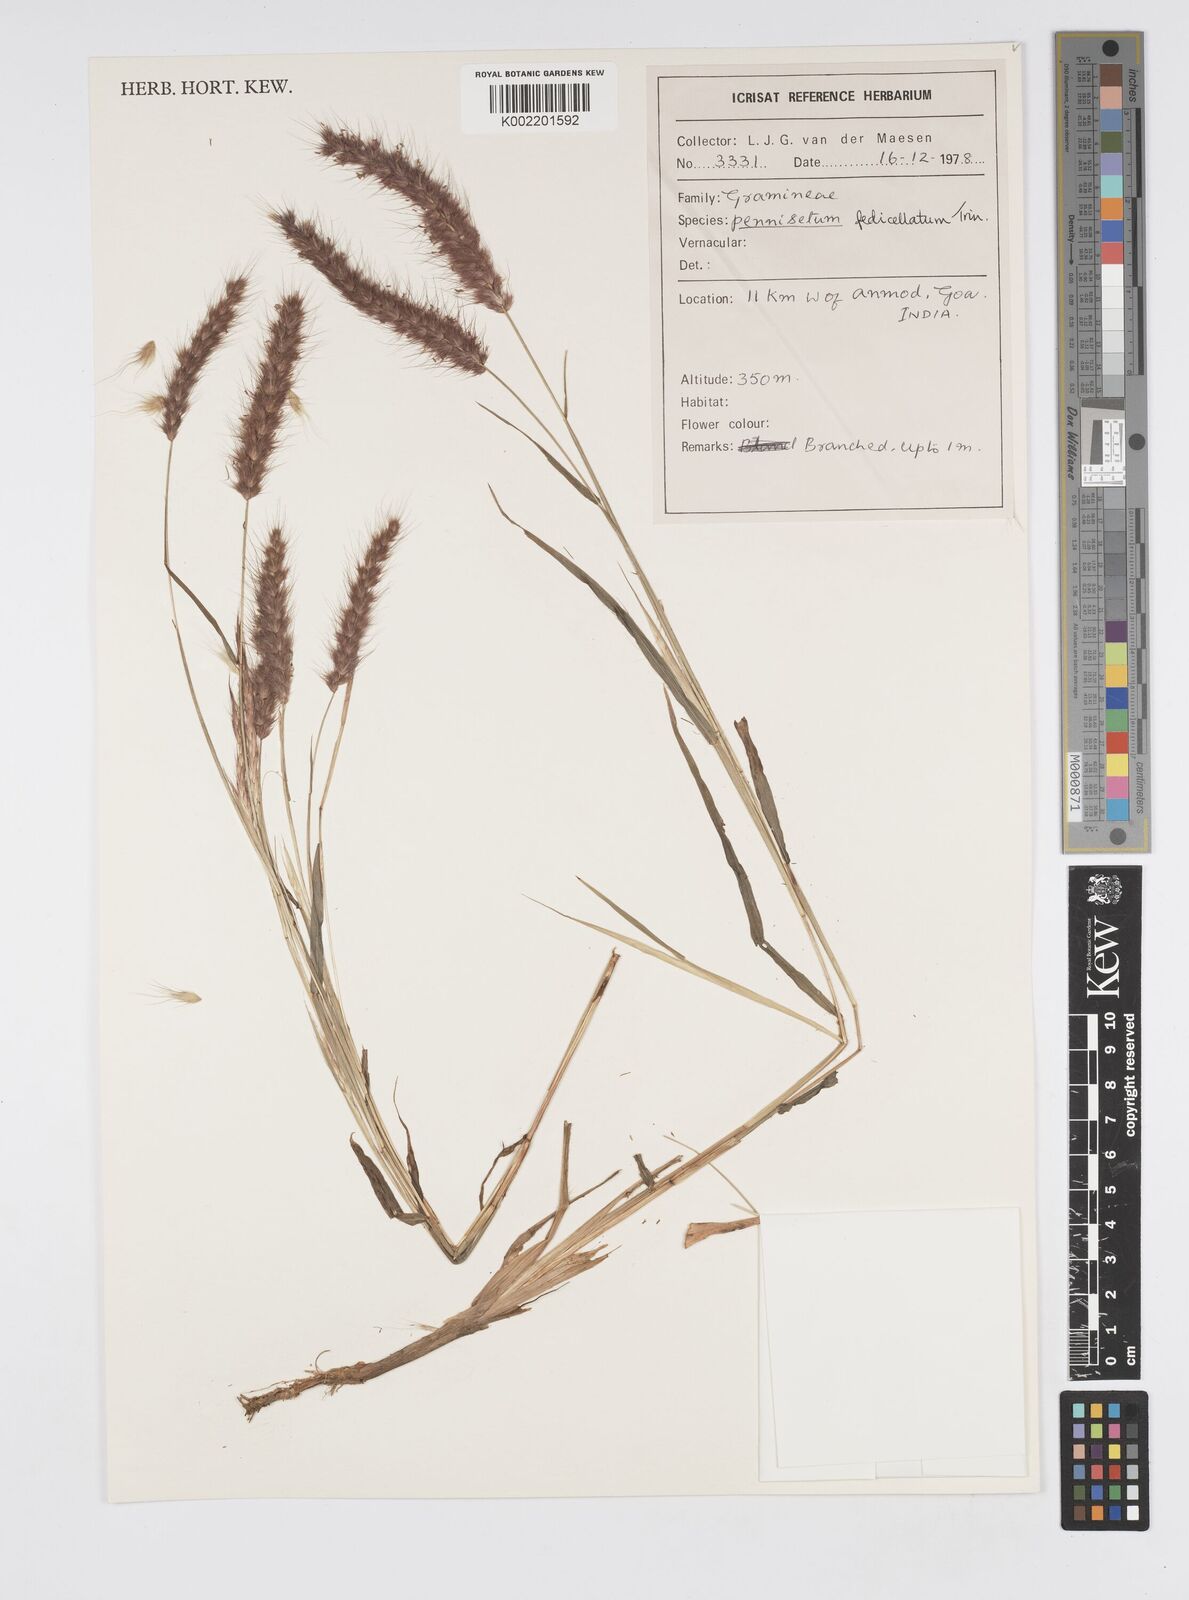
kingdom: Plantae
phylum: Tracheophyta
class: Liliopsida
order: Poales
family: Poaceae
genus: Cenchrus
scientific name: Cenchrus pedicellatus
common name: Hairy fountain grass
